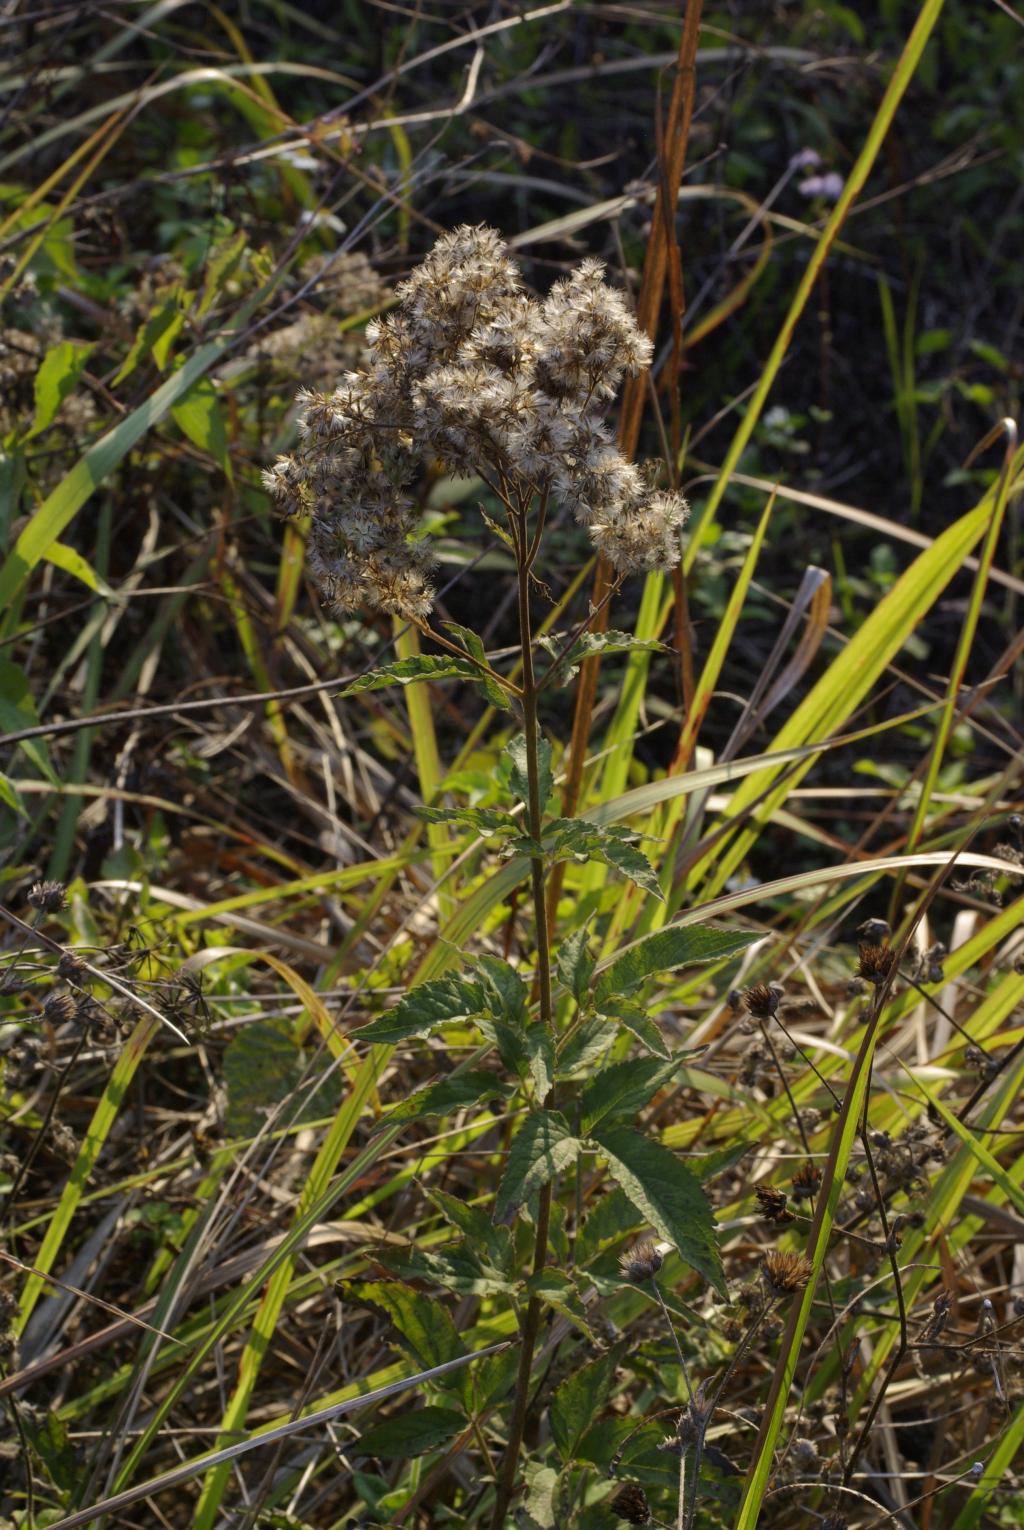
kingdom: Plantae
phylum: Tracheophyta
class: Magnoliopsida
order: Asterales
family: Asteraceae
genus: Eupatorium
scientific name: Eupatorium formosanum
